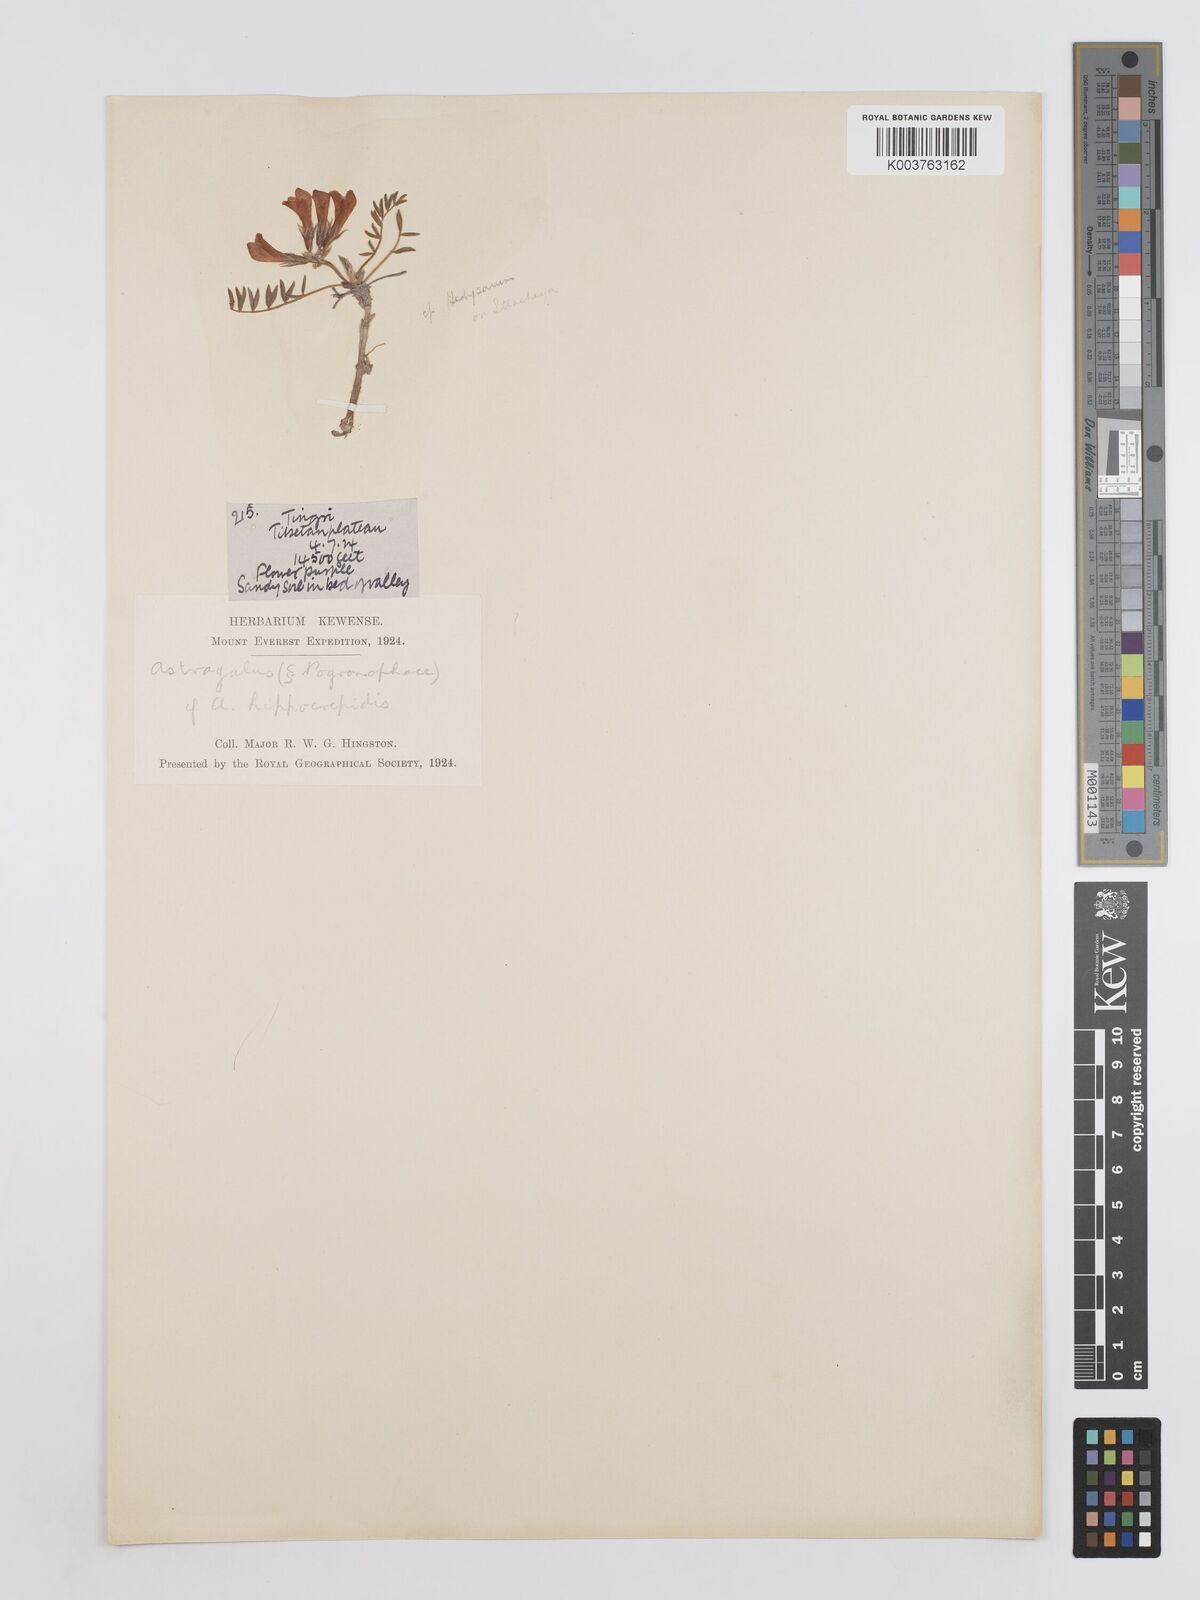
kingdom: Plantae
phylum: Tracheophyta
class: Magnoliopsida
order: Fabales
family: Fabaceae
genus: Hedysarum
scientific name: Hedysarum micropterum
